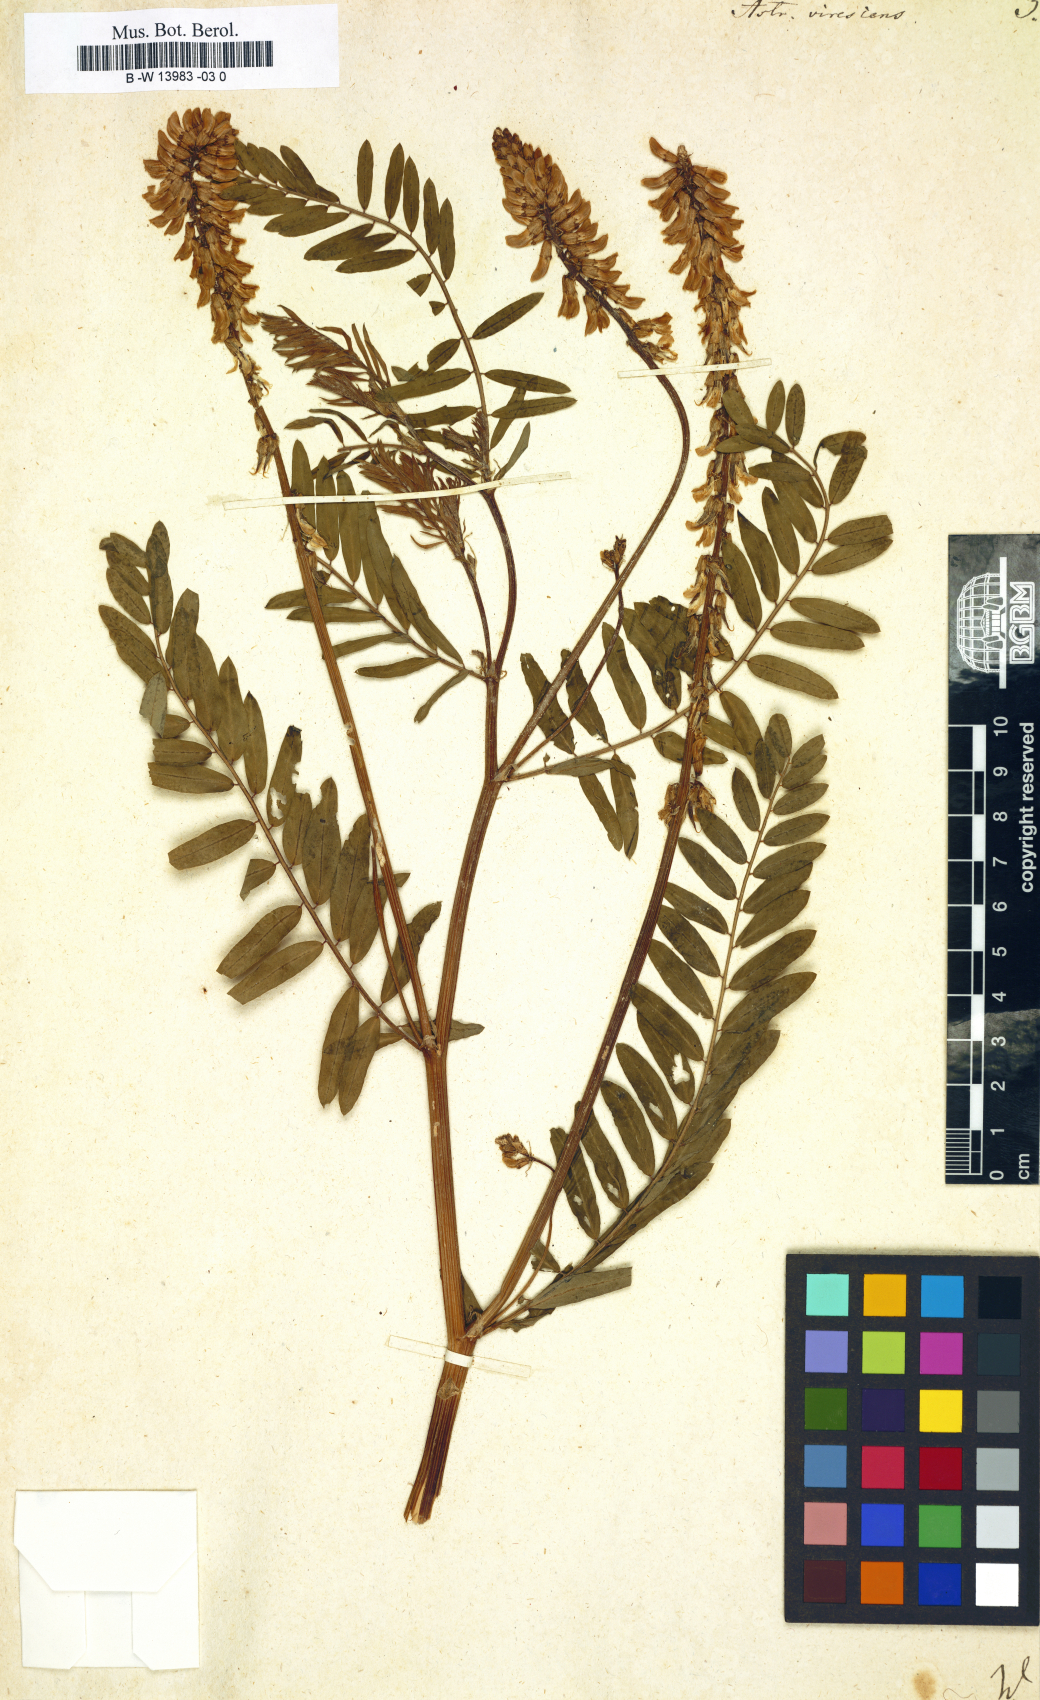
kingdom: Plantae
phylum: Tracheophyta
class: Magnoliopsida
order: Fabales
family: Fabaceae
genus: Astragalus
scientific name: Astragalus karelinianus
